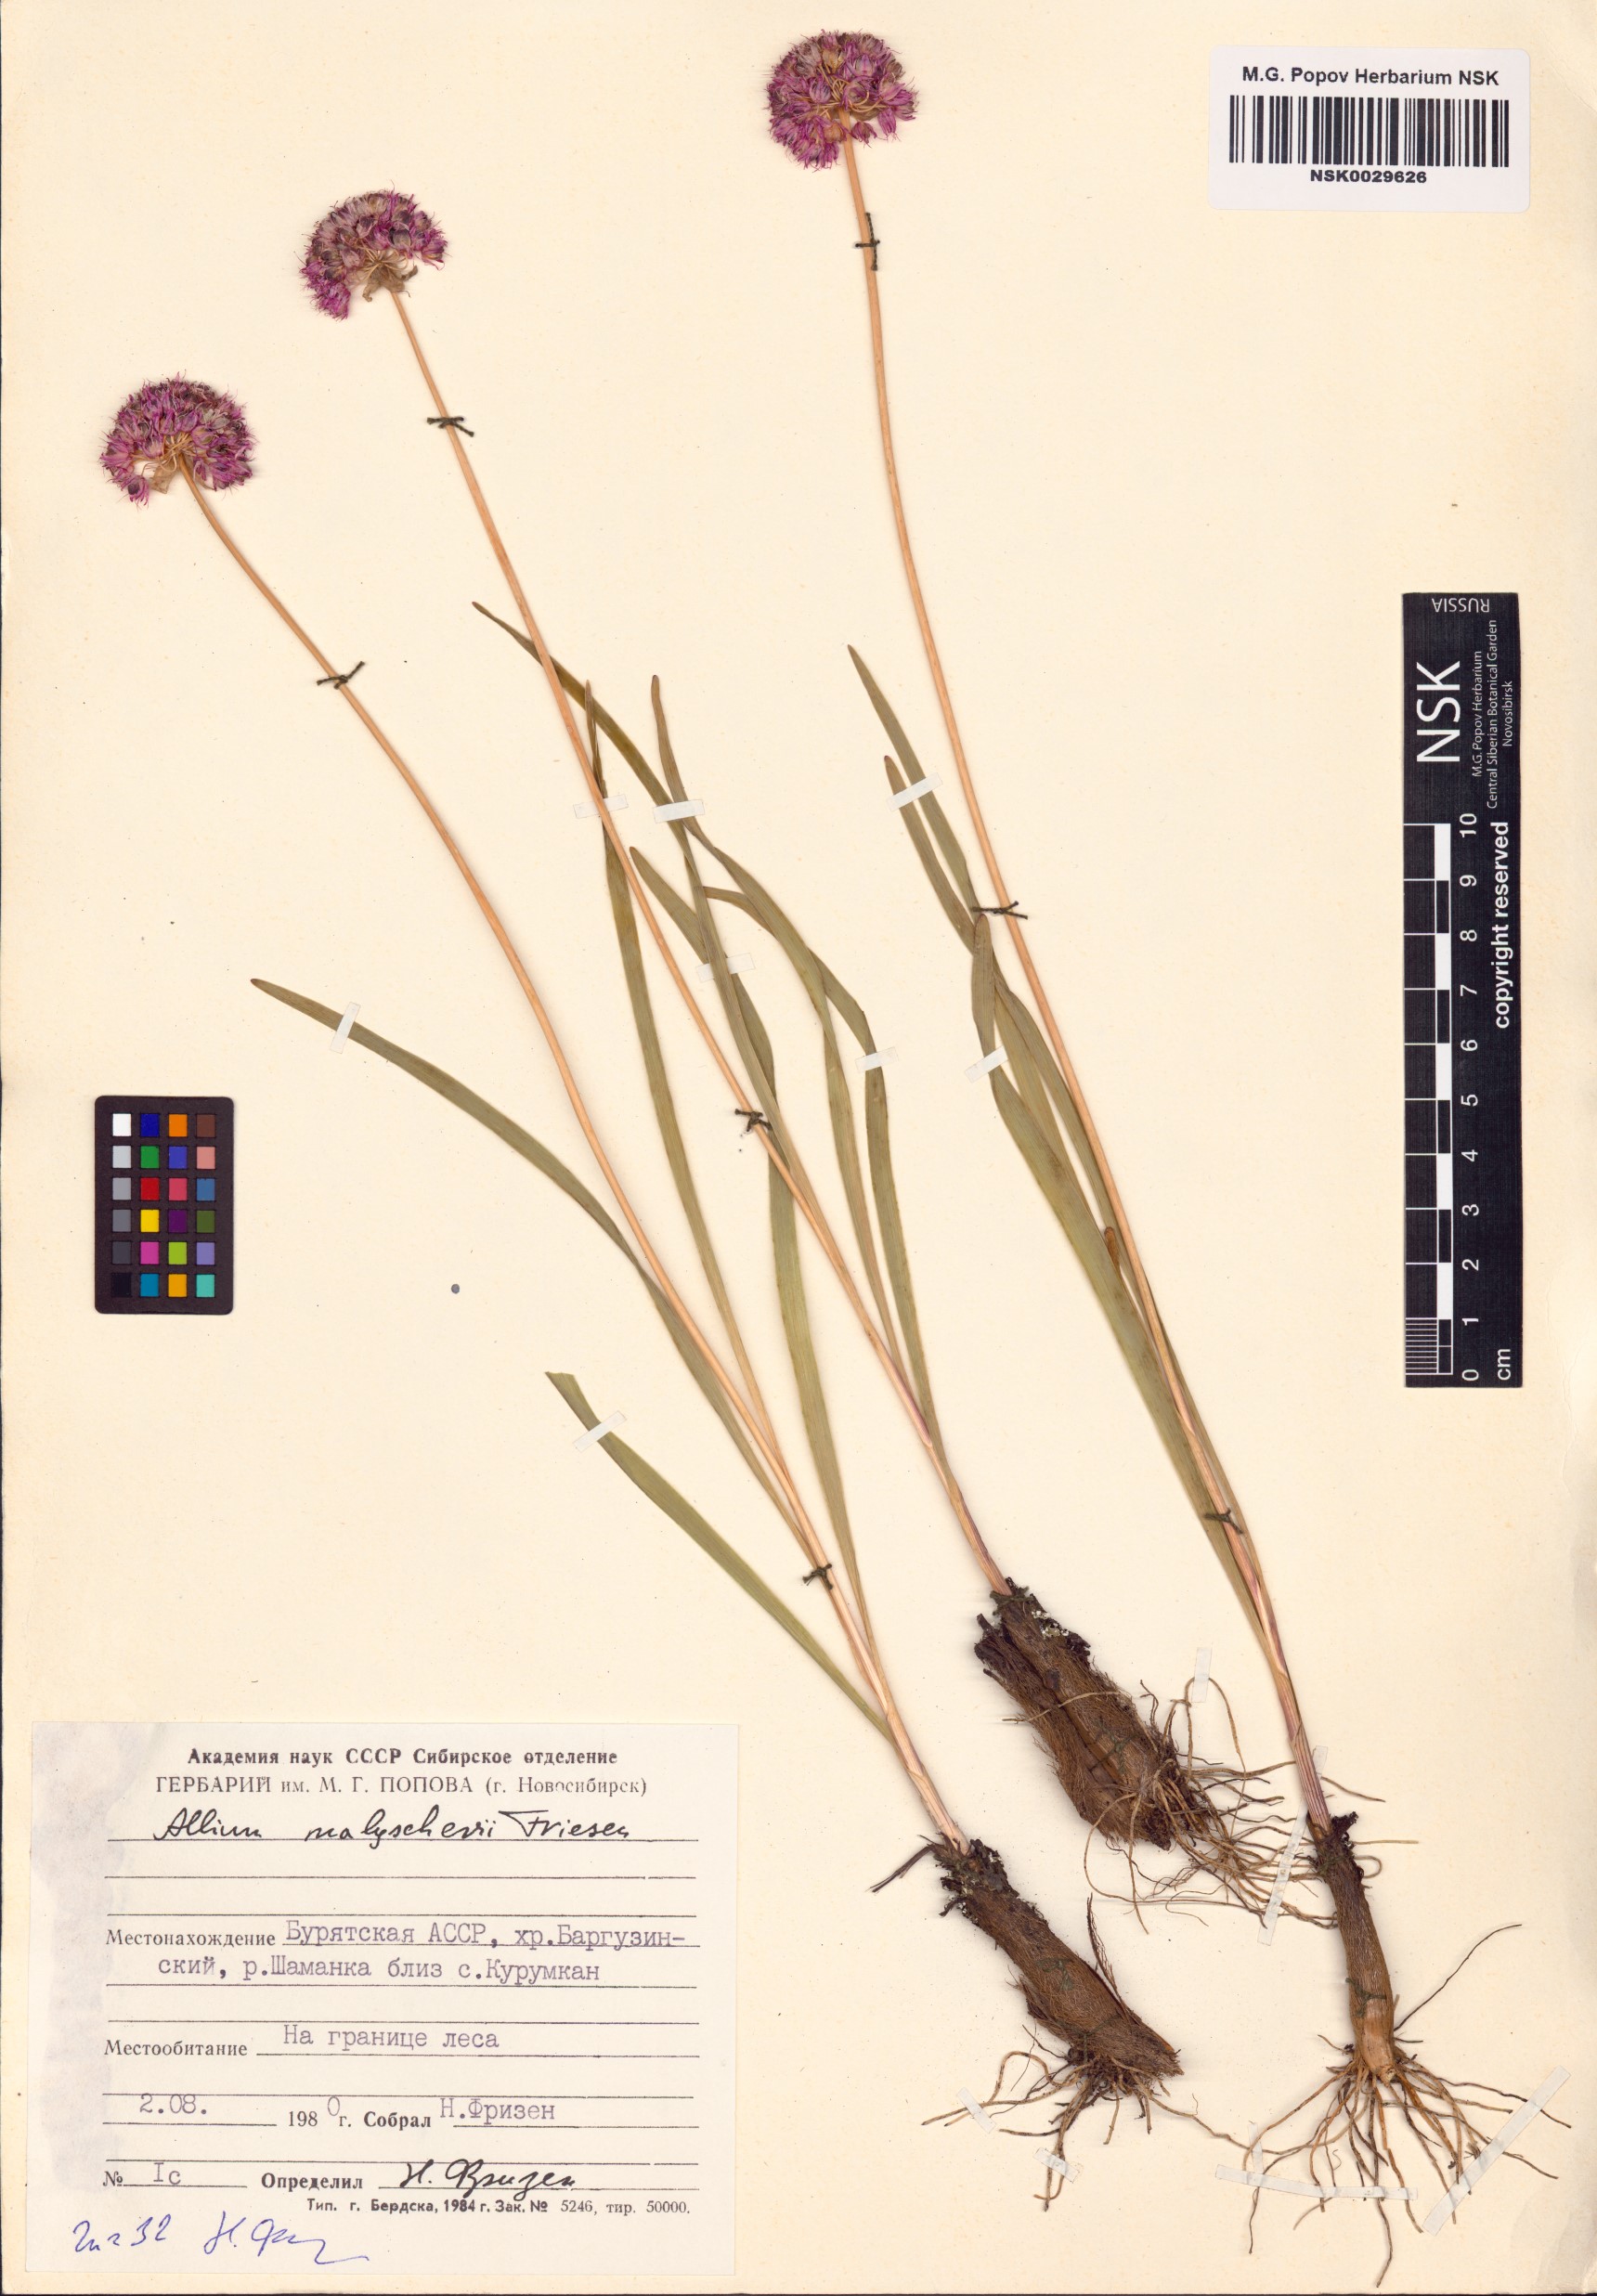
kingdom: Plantae
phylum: Tracheophyta
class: Liliopsida
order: Asparagales
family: Amaryllidaceae
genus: Allium
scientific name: Allium malyschevii
